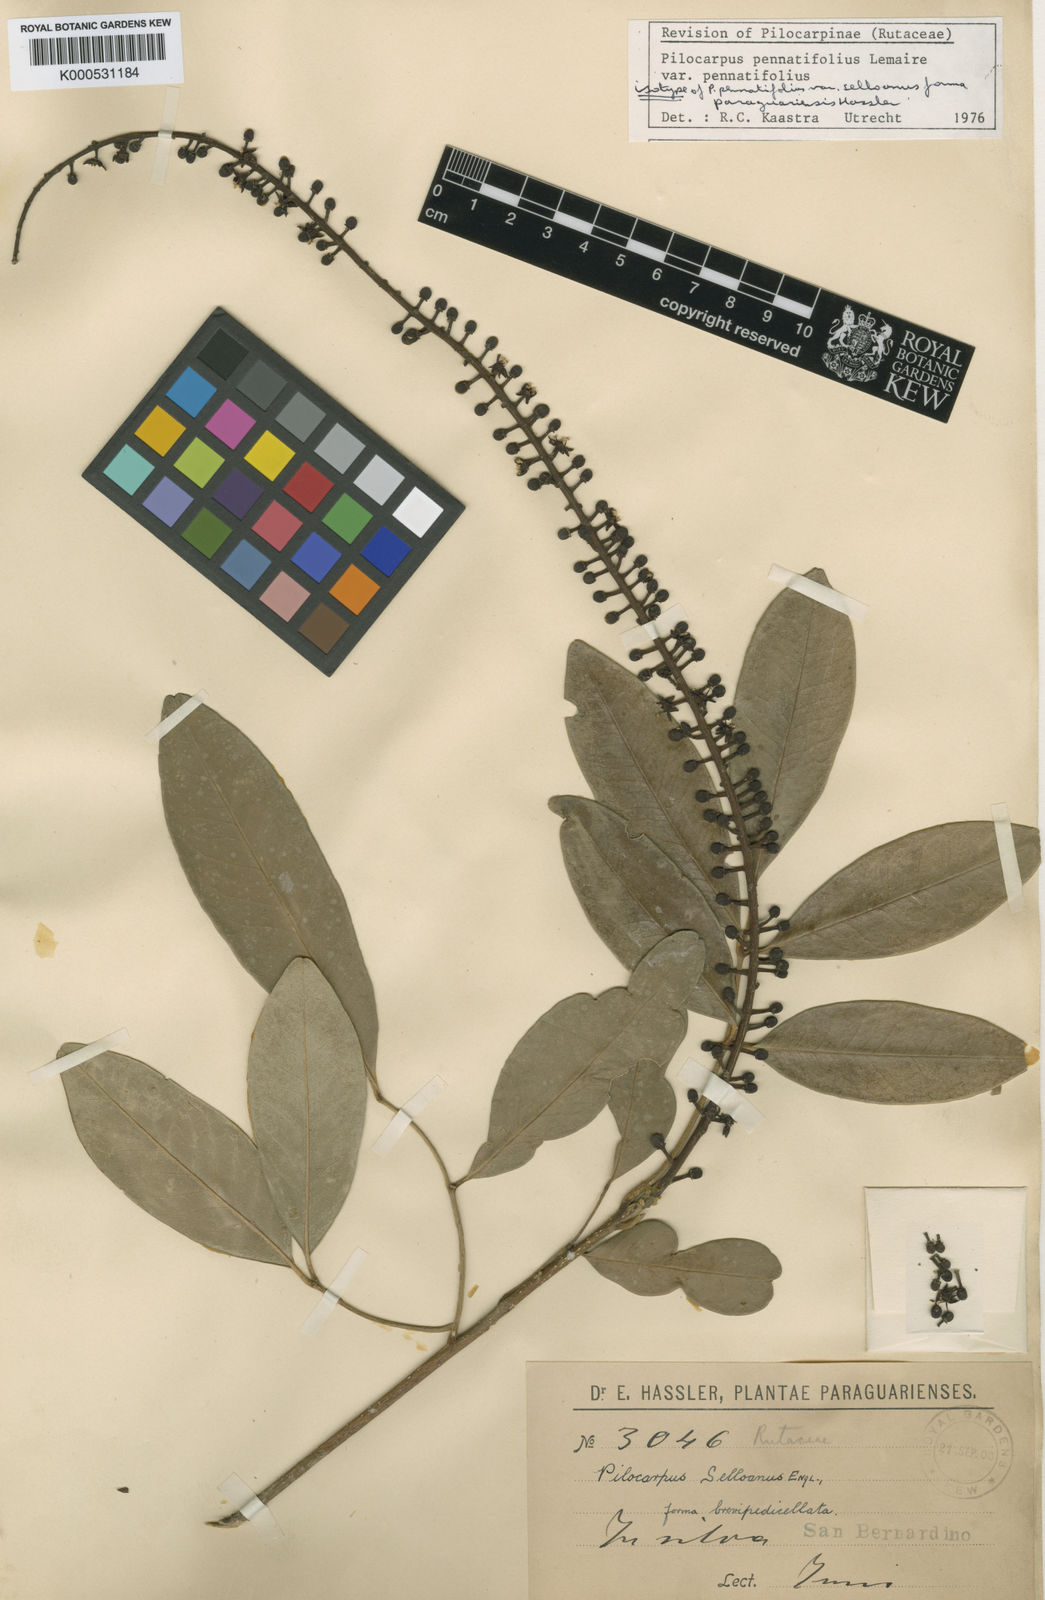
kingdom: Plantae
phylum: Tracheophyta
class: Magnoliopsida
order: Sapindales
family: Rutaceae
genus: Pilocarpus
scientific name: Pilocarpus pennatifolius
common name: Paraguay jaborandi
